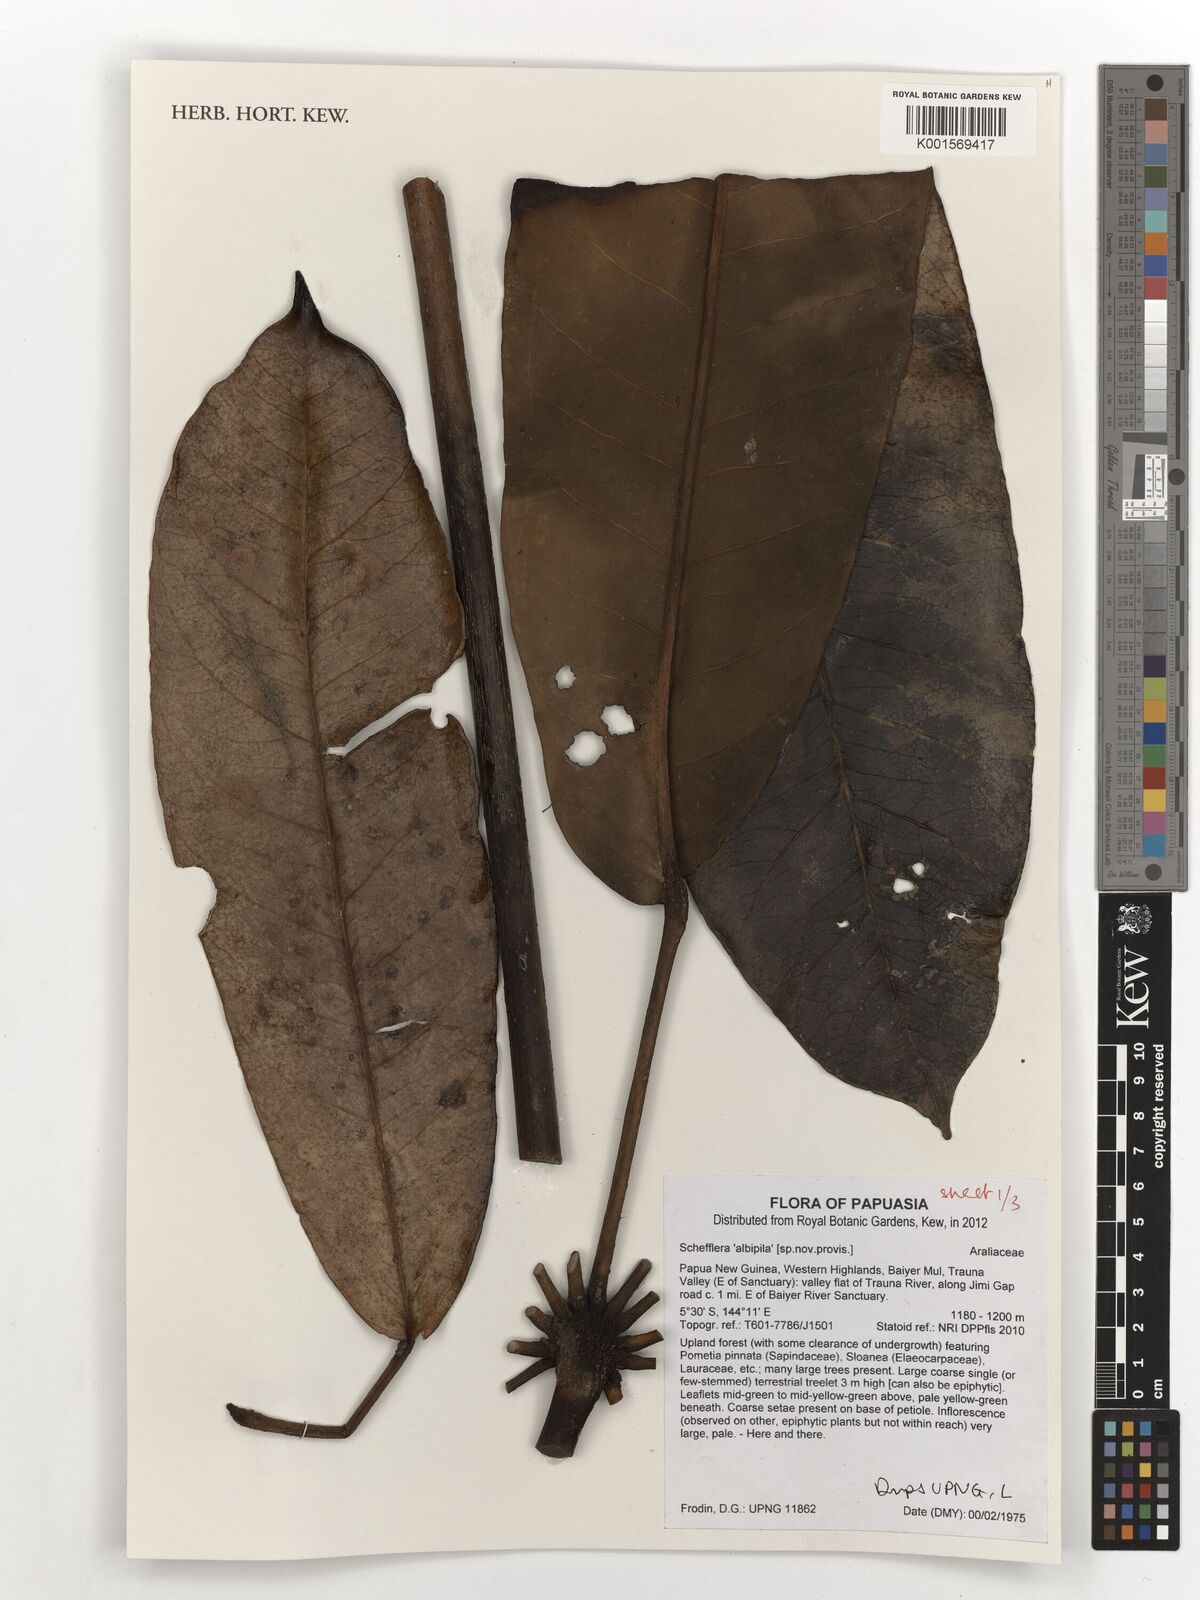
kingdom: Plantae
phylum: Tracheophyta
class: Magnoliopsida
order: Apiales
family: Araliaceae
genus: Schefflera
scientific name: Schefflera
